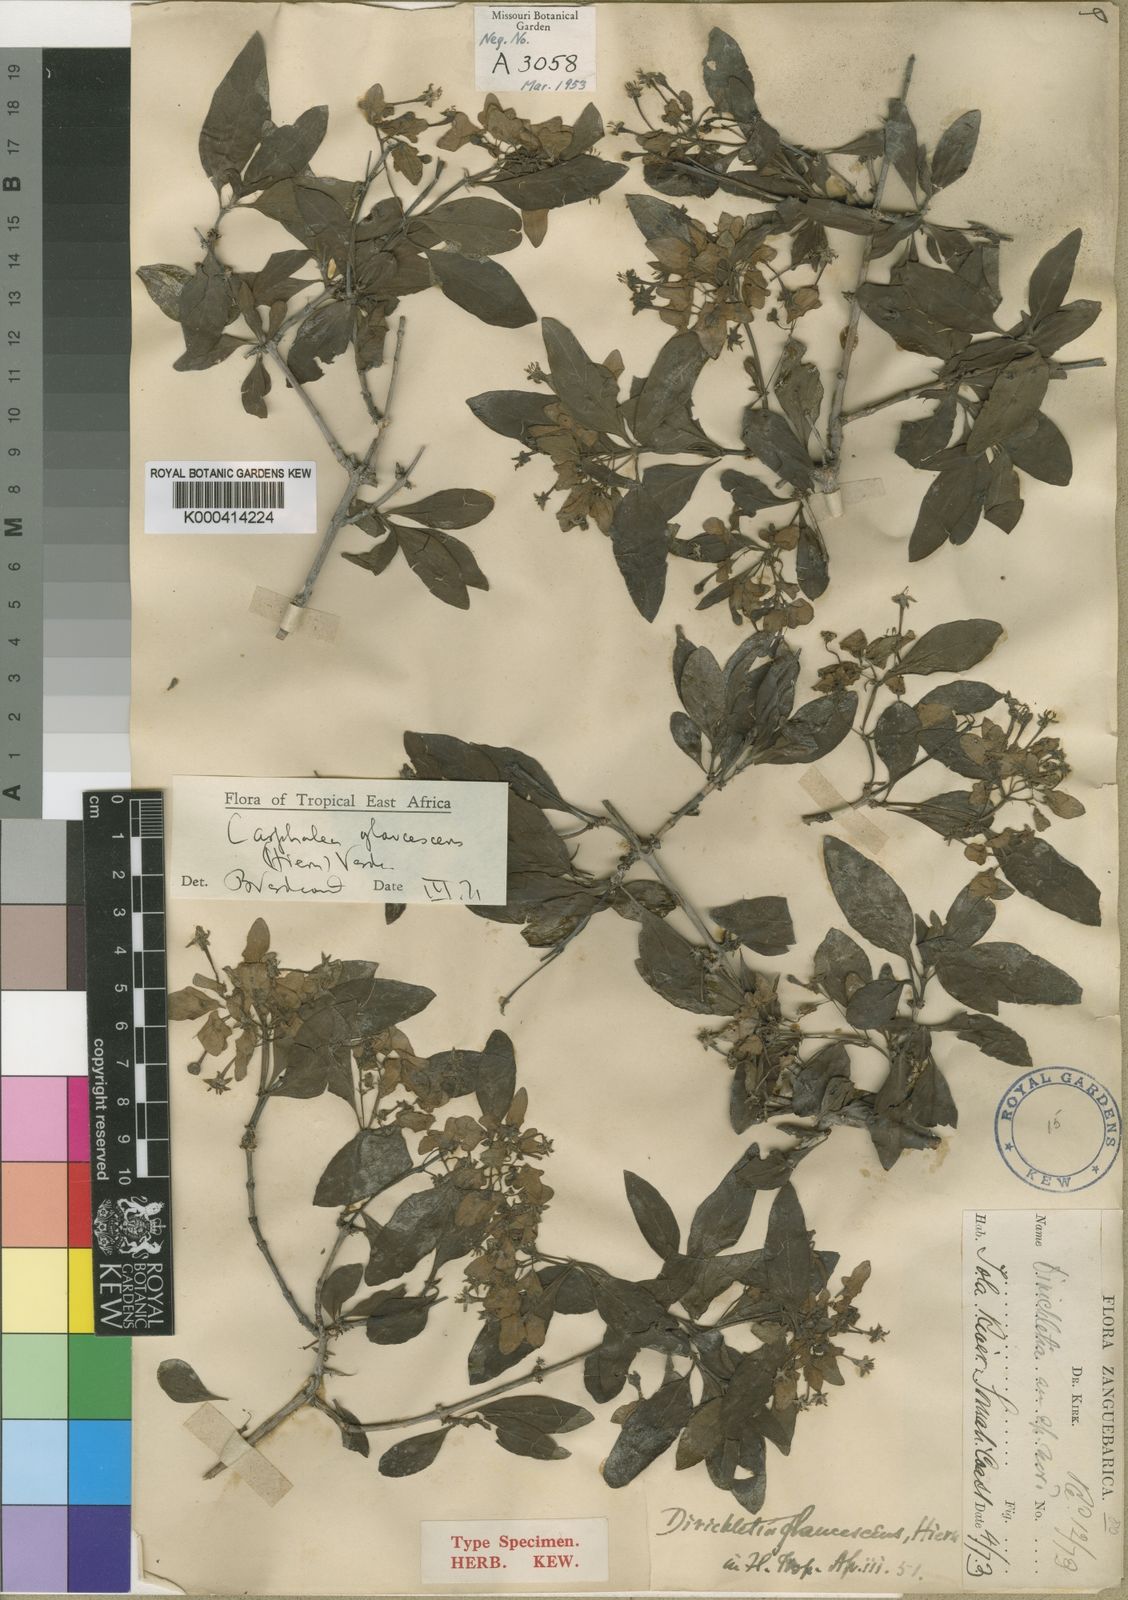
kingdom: Plantae
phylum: Tracheophyta
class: Magnoliopsida
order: Gentianales
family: Rubiaceae
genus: Dirichletia
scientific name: Dirichletia glaucescens
